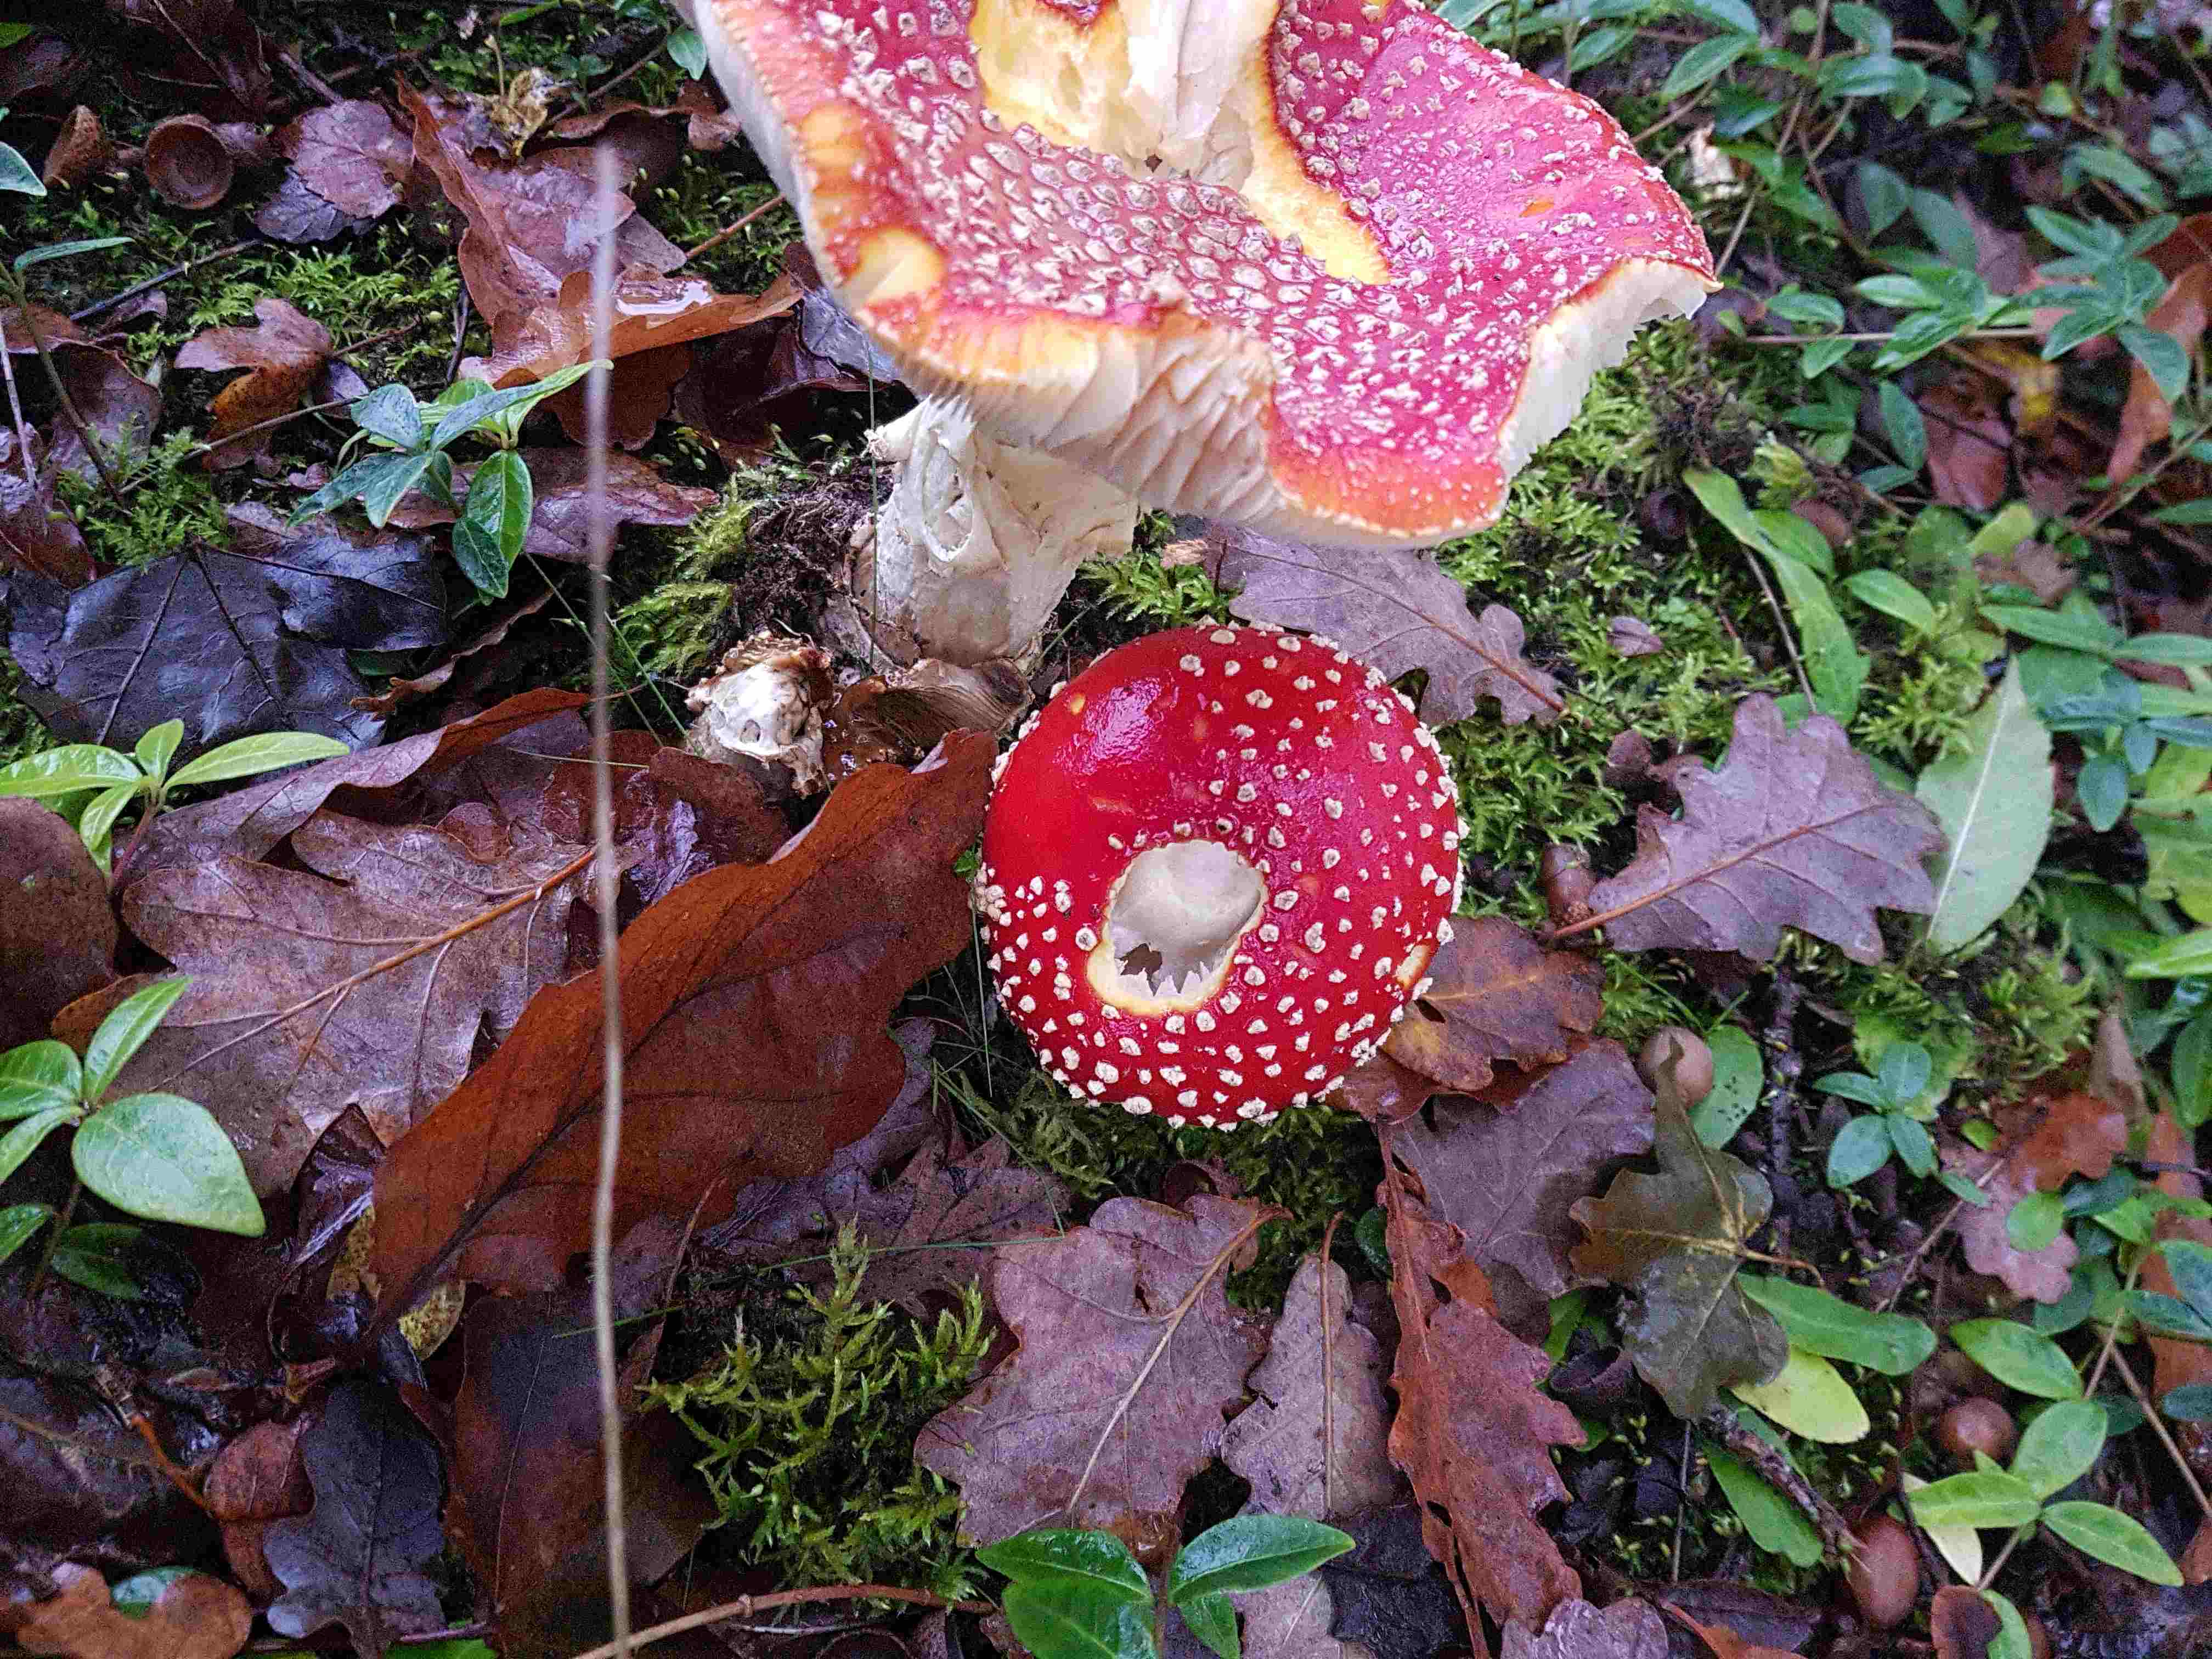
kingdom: Fungi
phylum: Basidiomycota
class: Agaricomycetes
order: Agaricales
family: Amanitaceae
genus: Amanita
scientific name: Amanita muscaria
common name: rød fluesvamp
